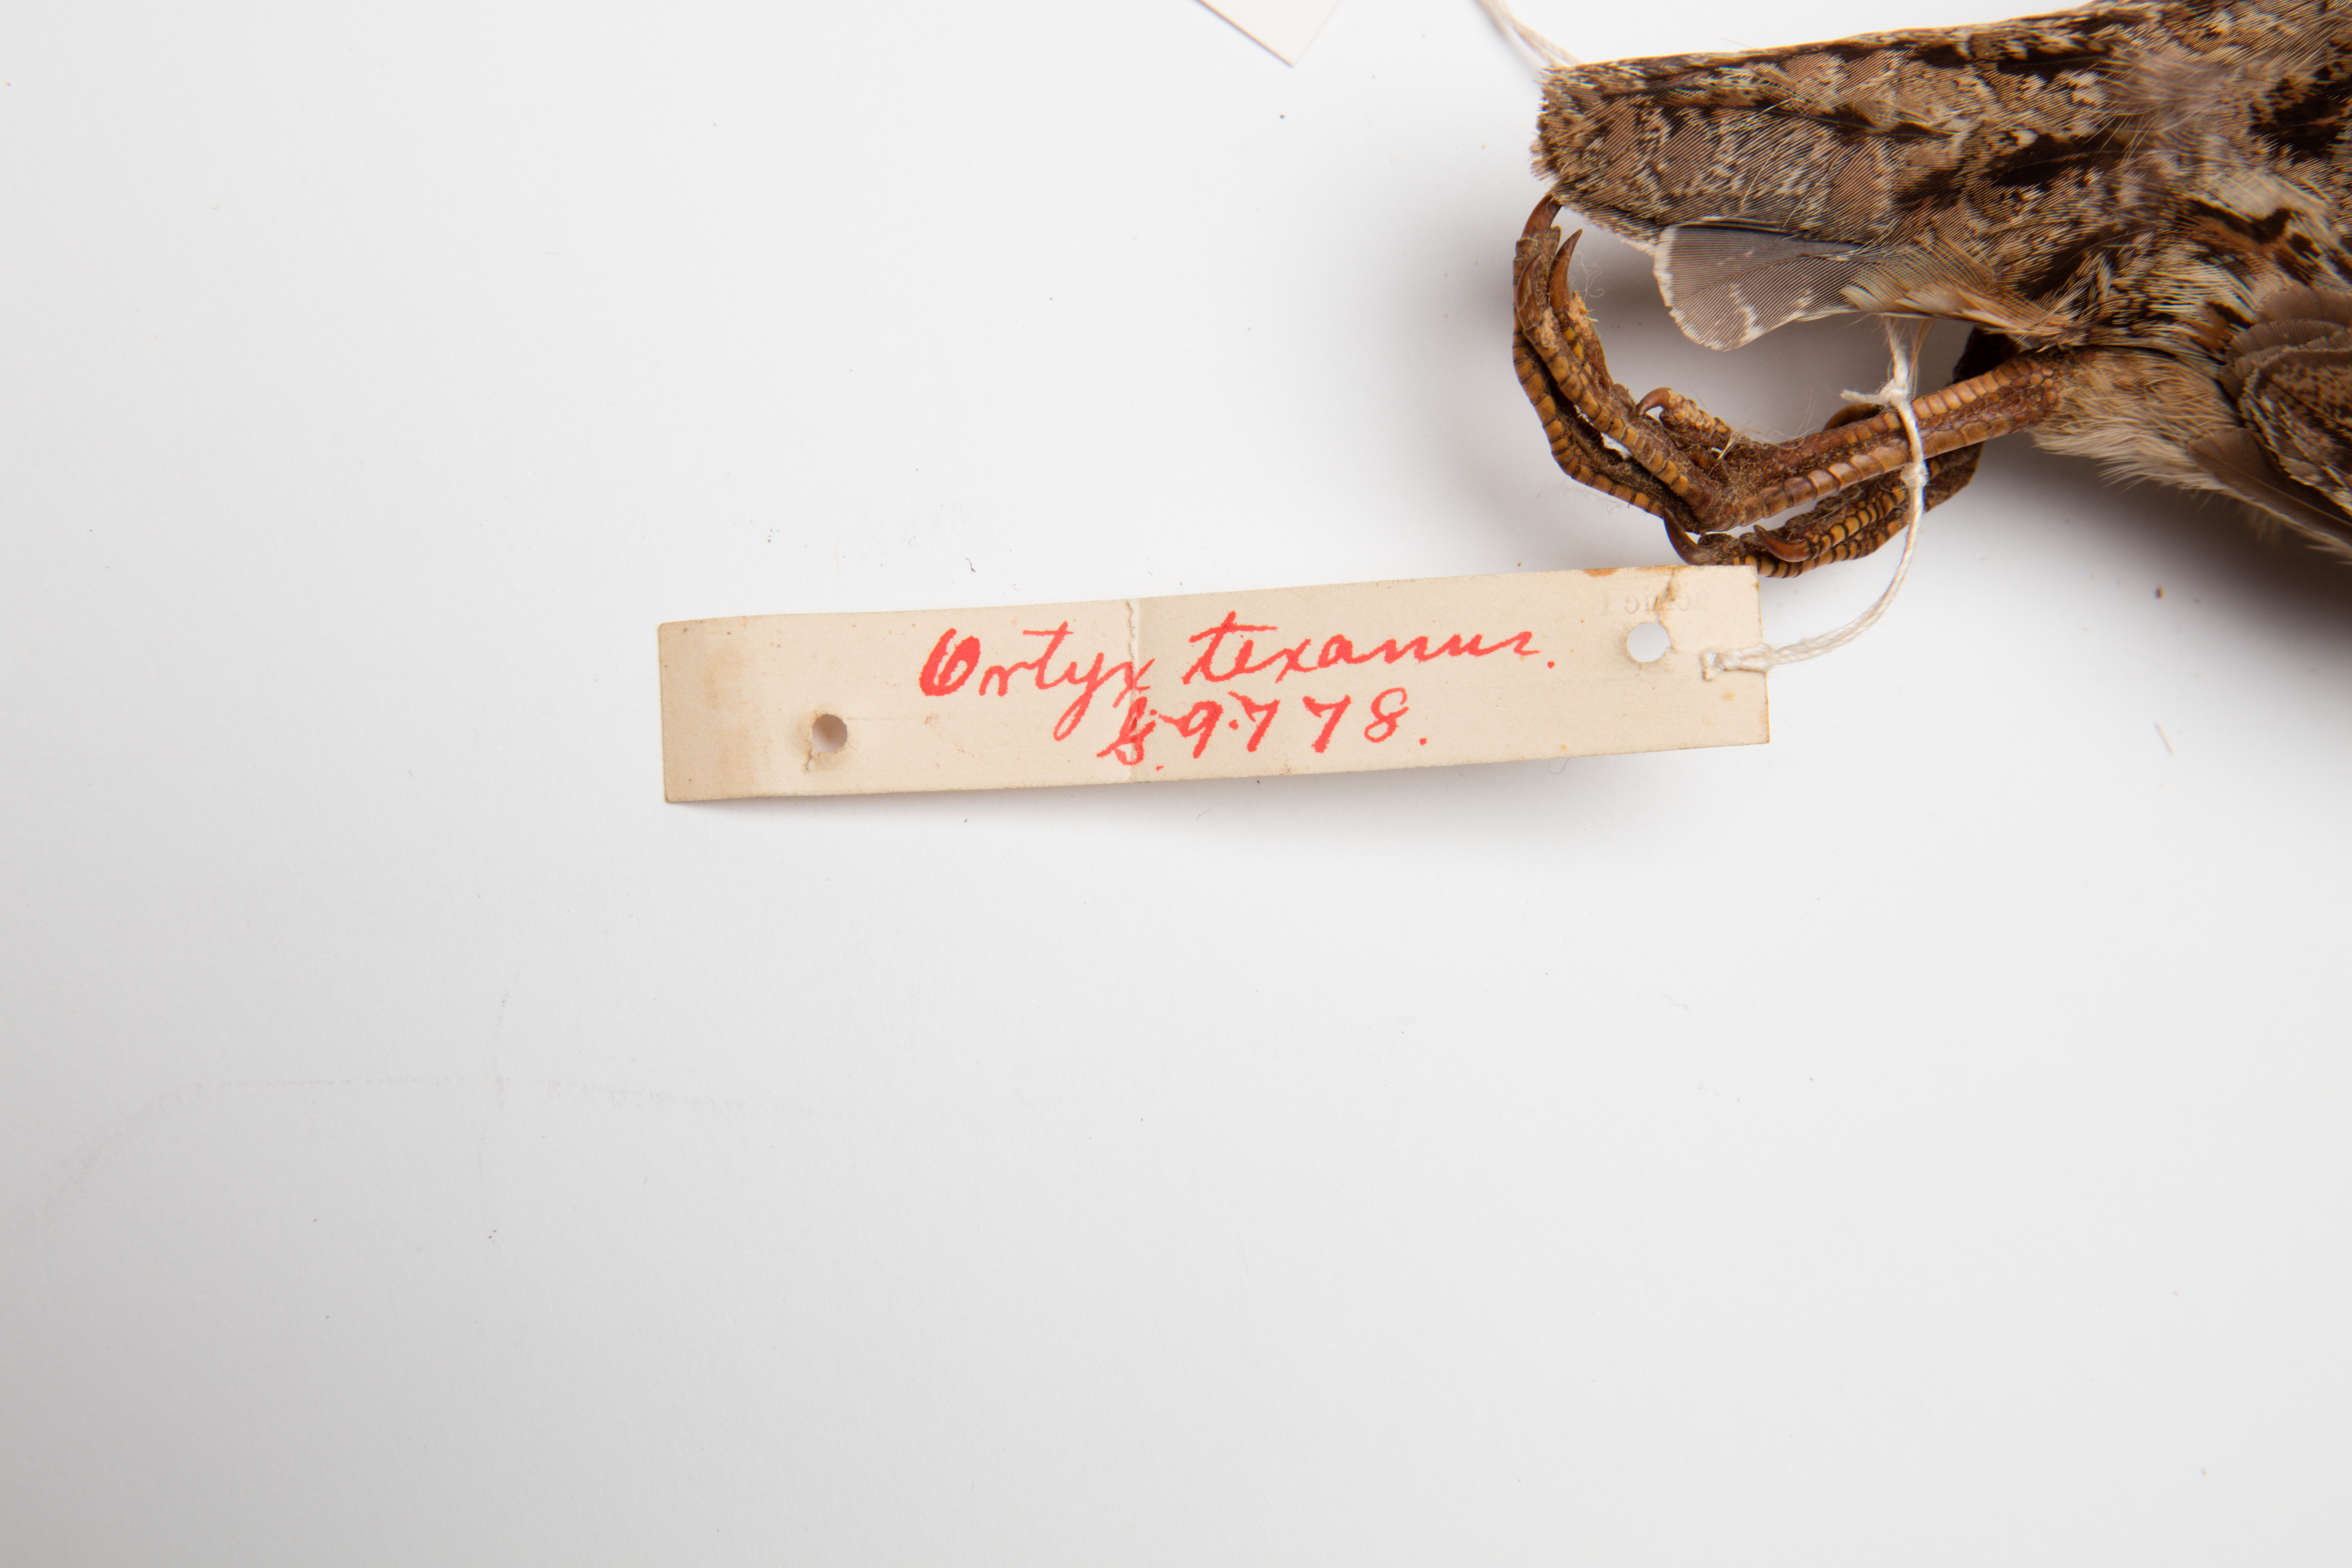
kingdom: Animalia
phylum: Chordata
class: Aves
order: Galliformes
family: Odontophoridae
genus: Colinus
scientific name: Colinus virginianus
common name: Northern bobwhite
